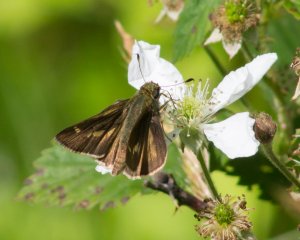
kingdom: Animalia
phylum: Arthropoda
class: Insecta
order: Lepidoptera
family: Hesperiidae
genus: Vernia
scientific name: Vernia verna
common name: Little Glassywing
